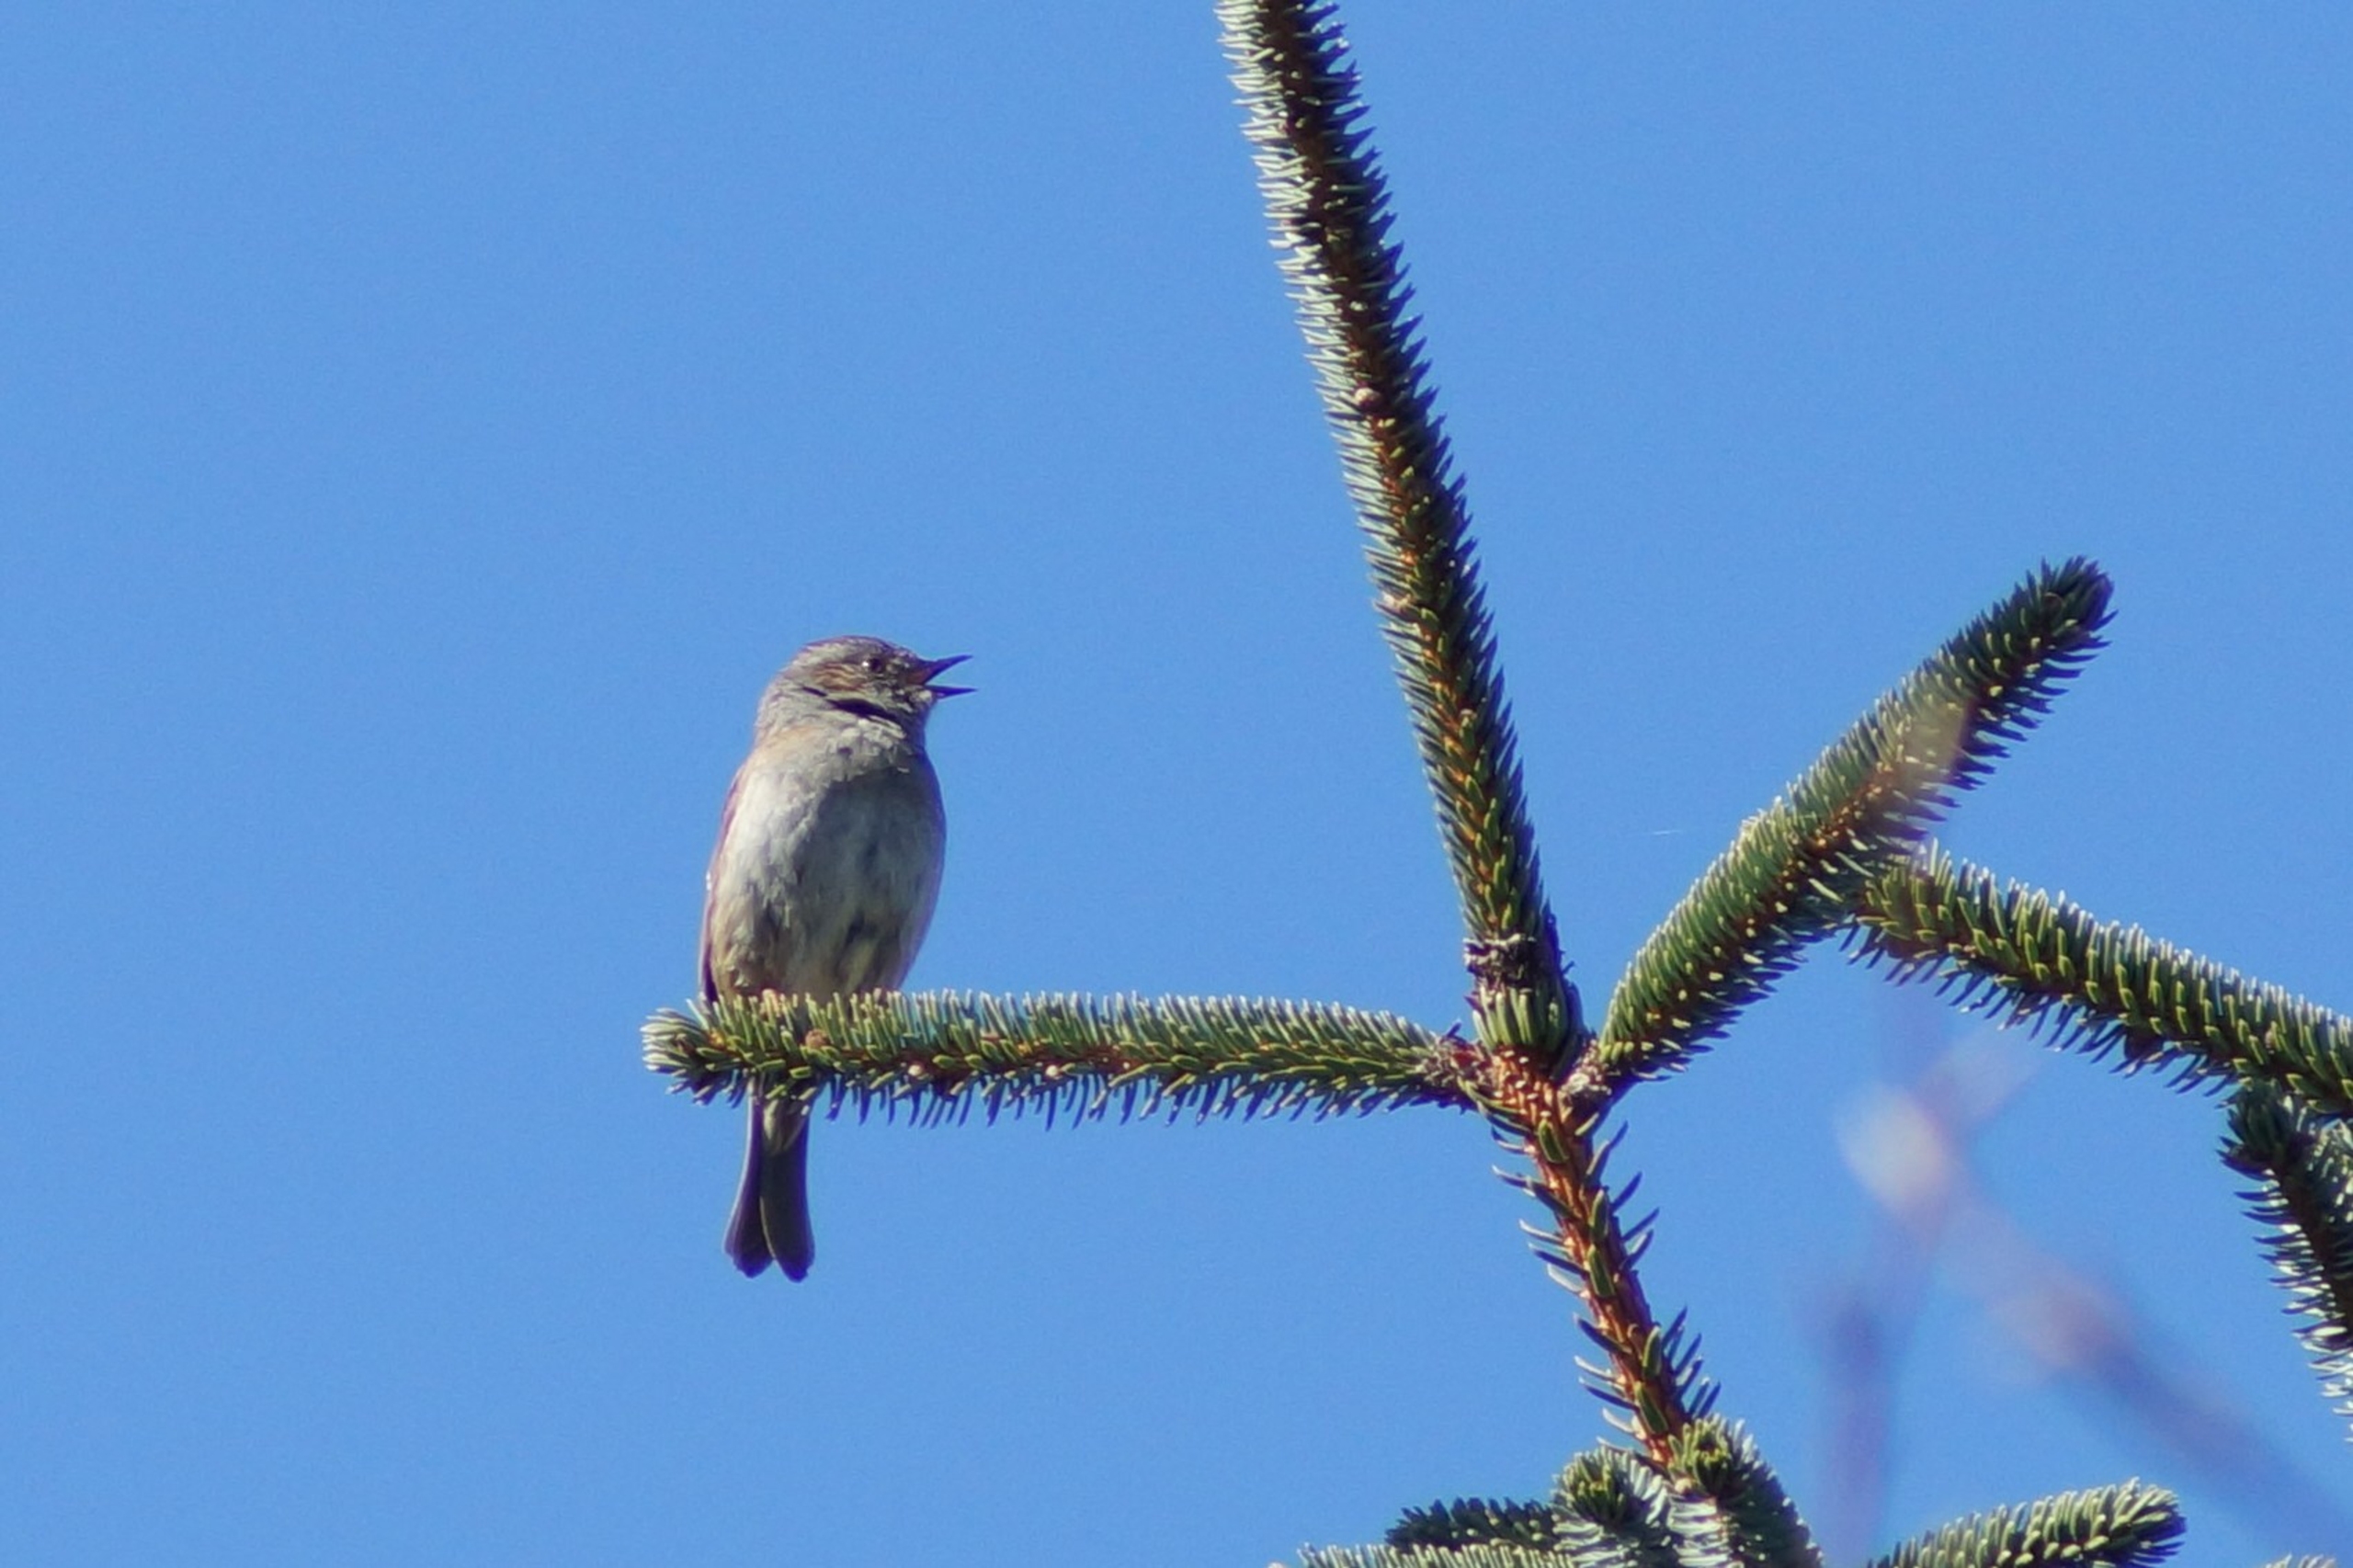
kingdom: Animalia
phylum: Chordata
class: Aves
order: Passeriformes
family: Prunellidae
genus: Prunella
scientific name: Prunella modularis
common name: Jernspurv
